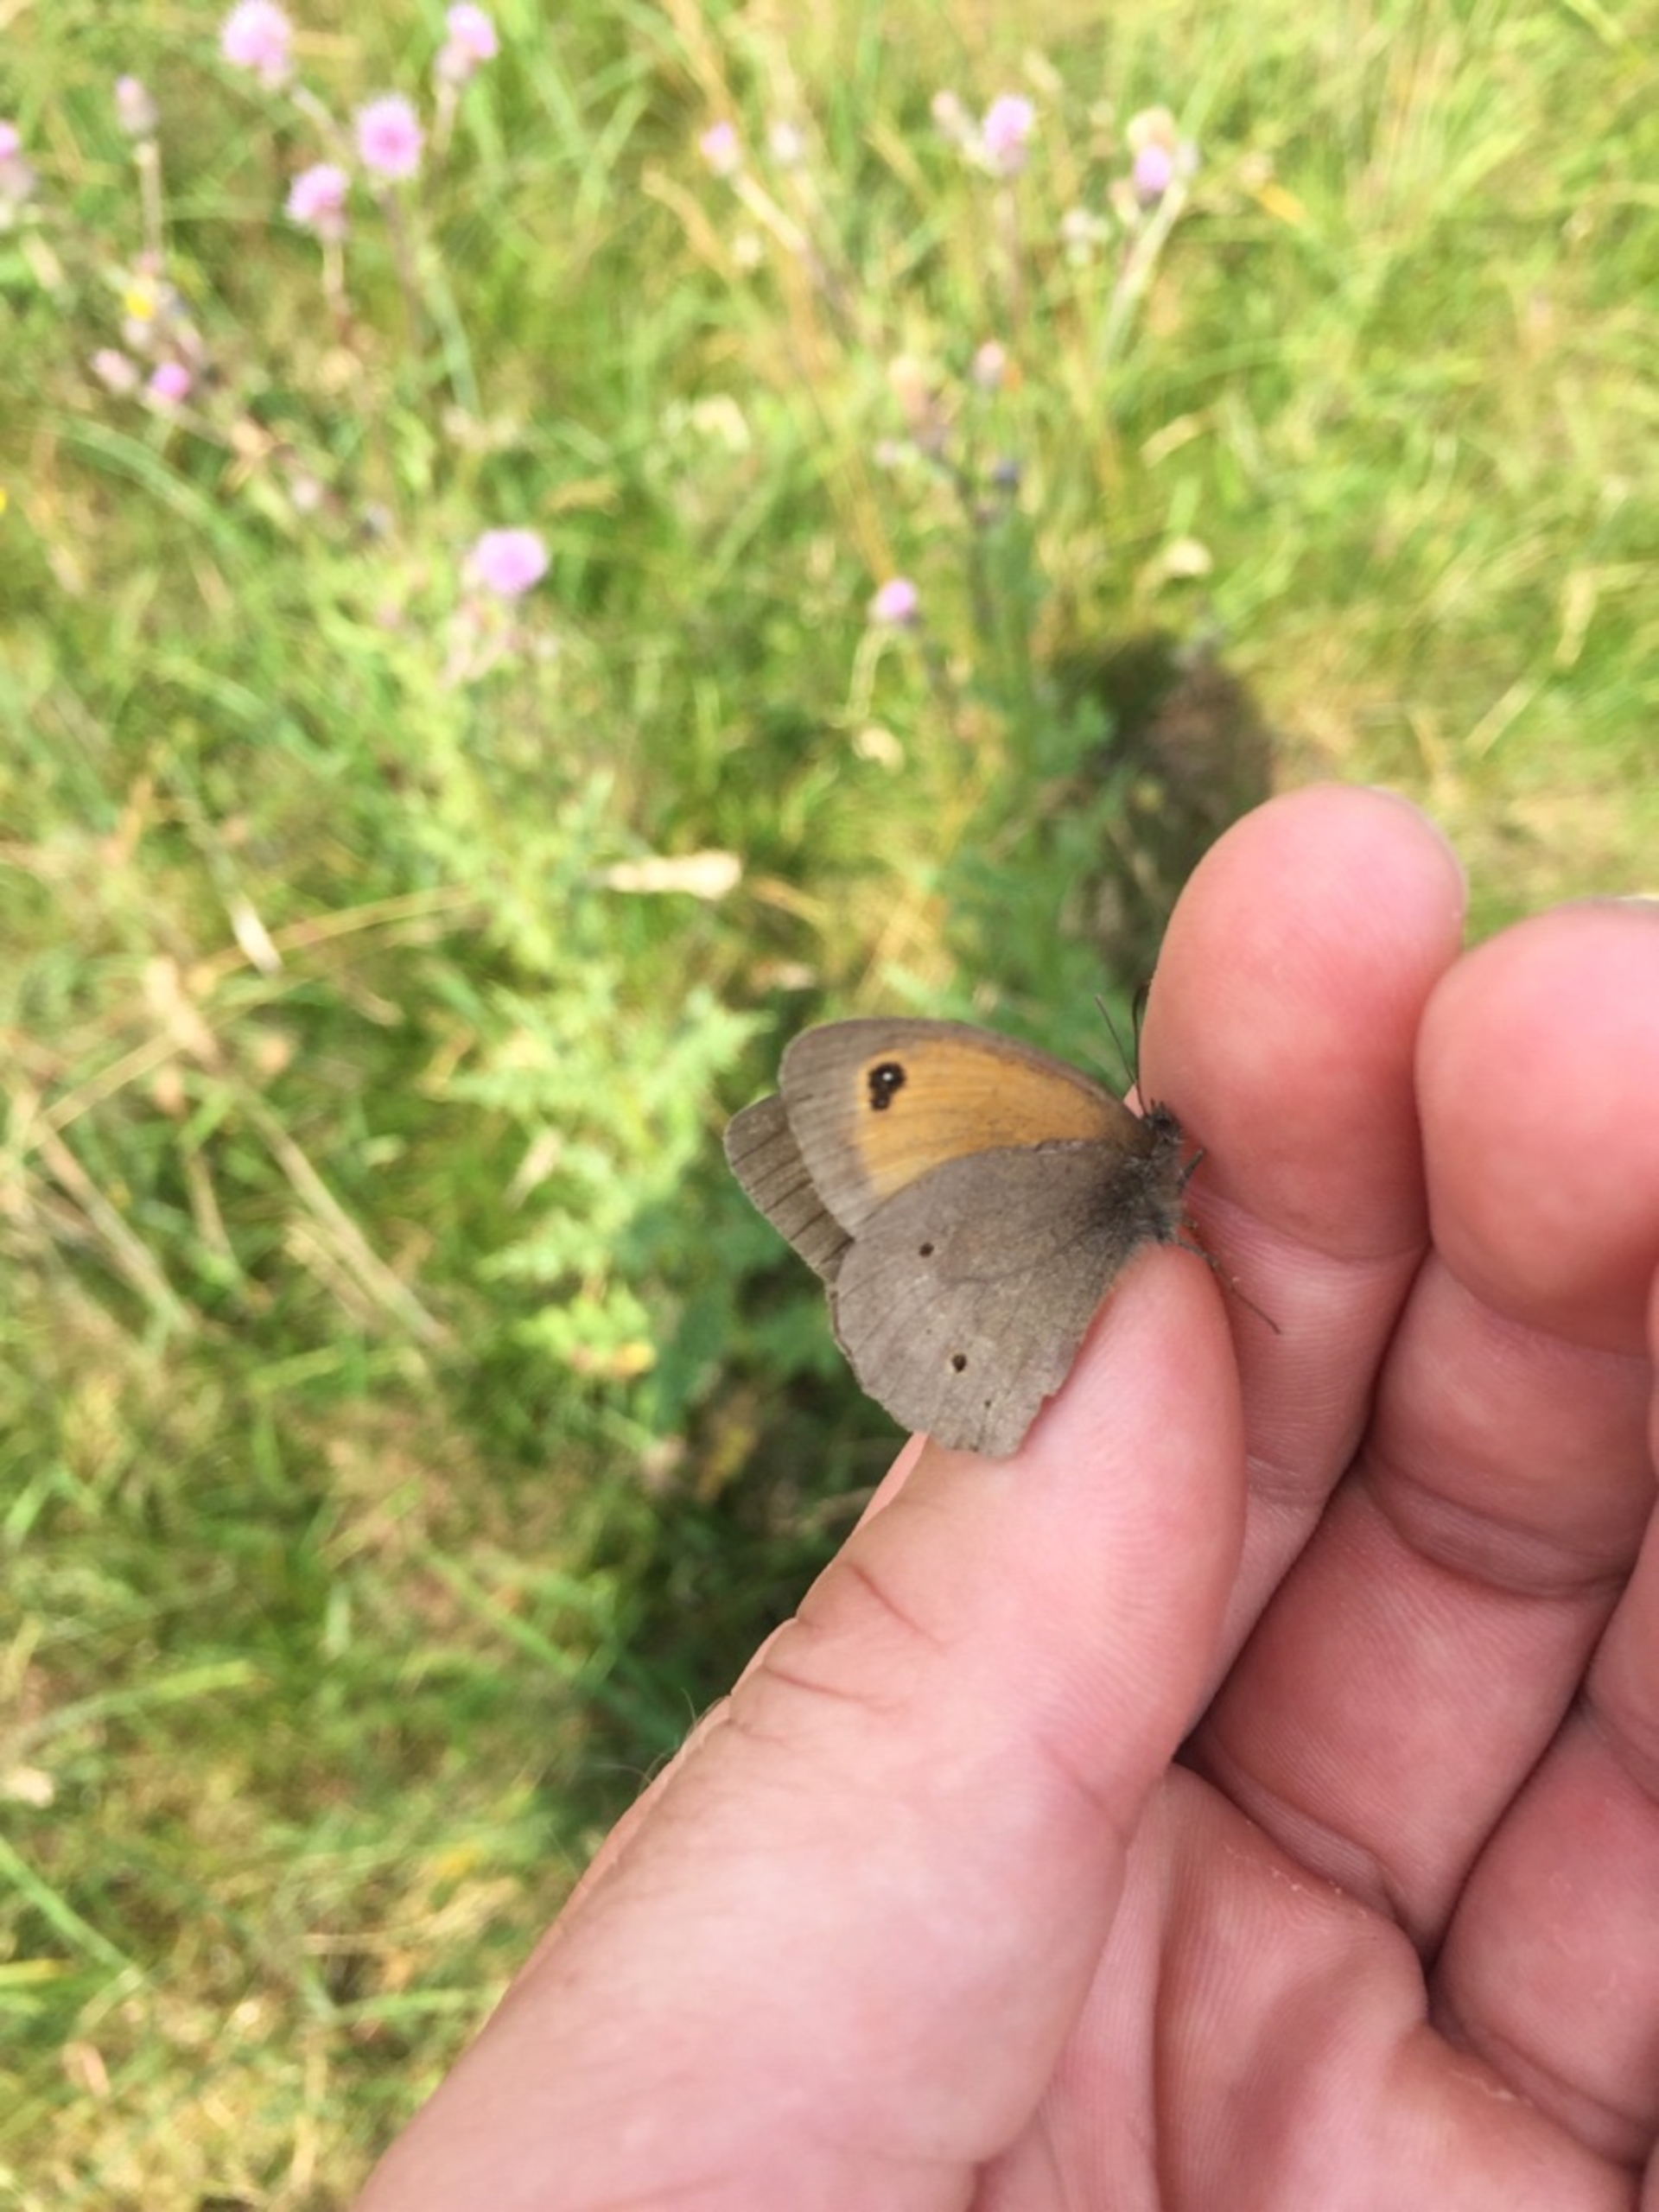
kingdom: Animalia
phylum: Arthropoda
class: Insecta
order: Lepidoptera
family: Nymphalidae
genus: Maniola
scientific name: Maniola jurtina
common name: Græsrandøje
